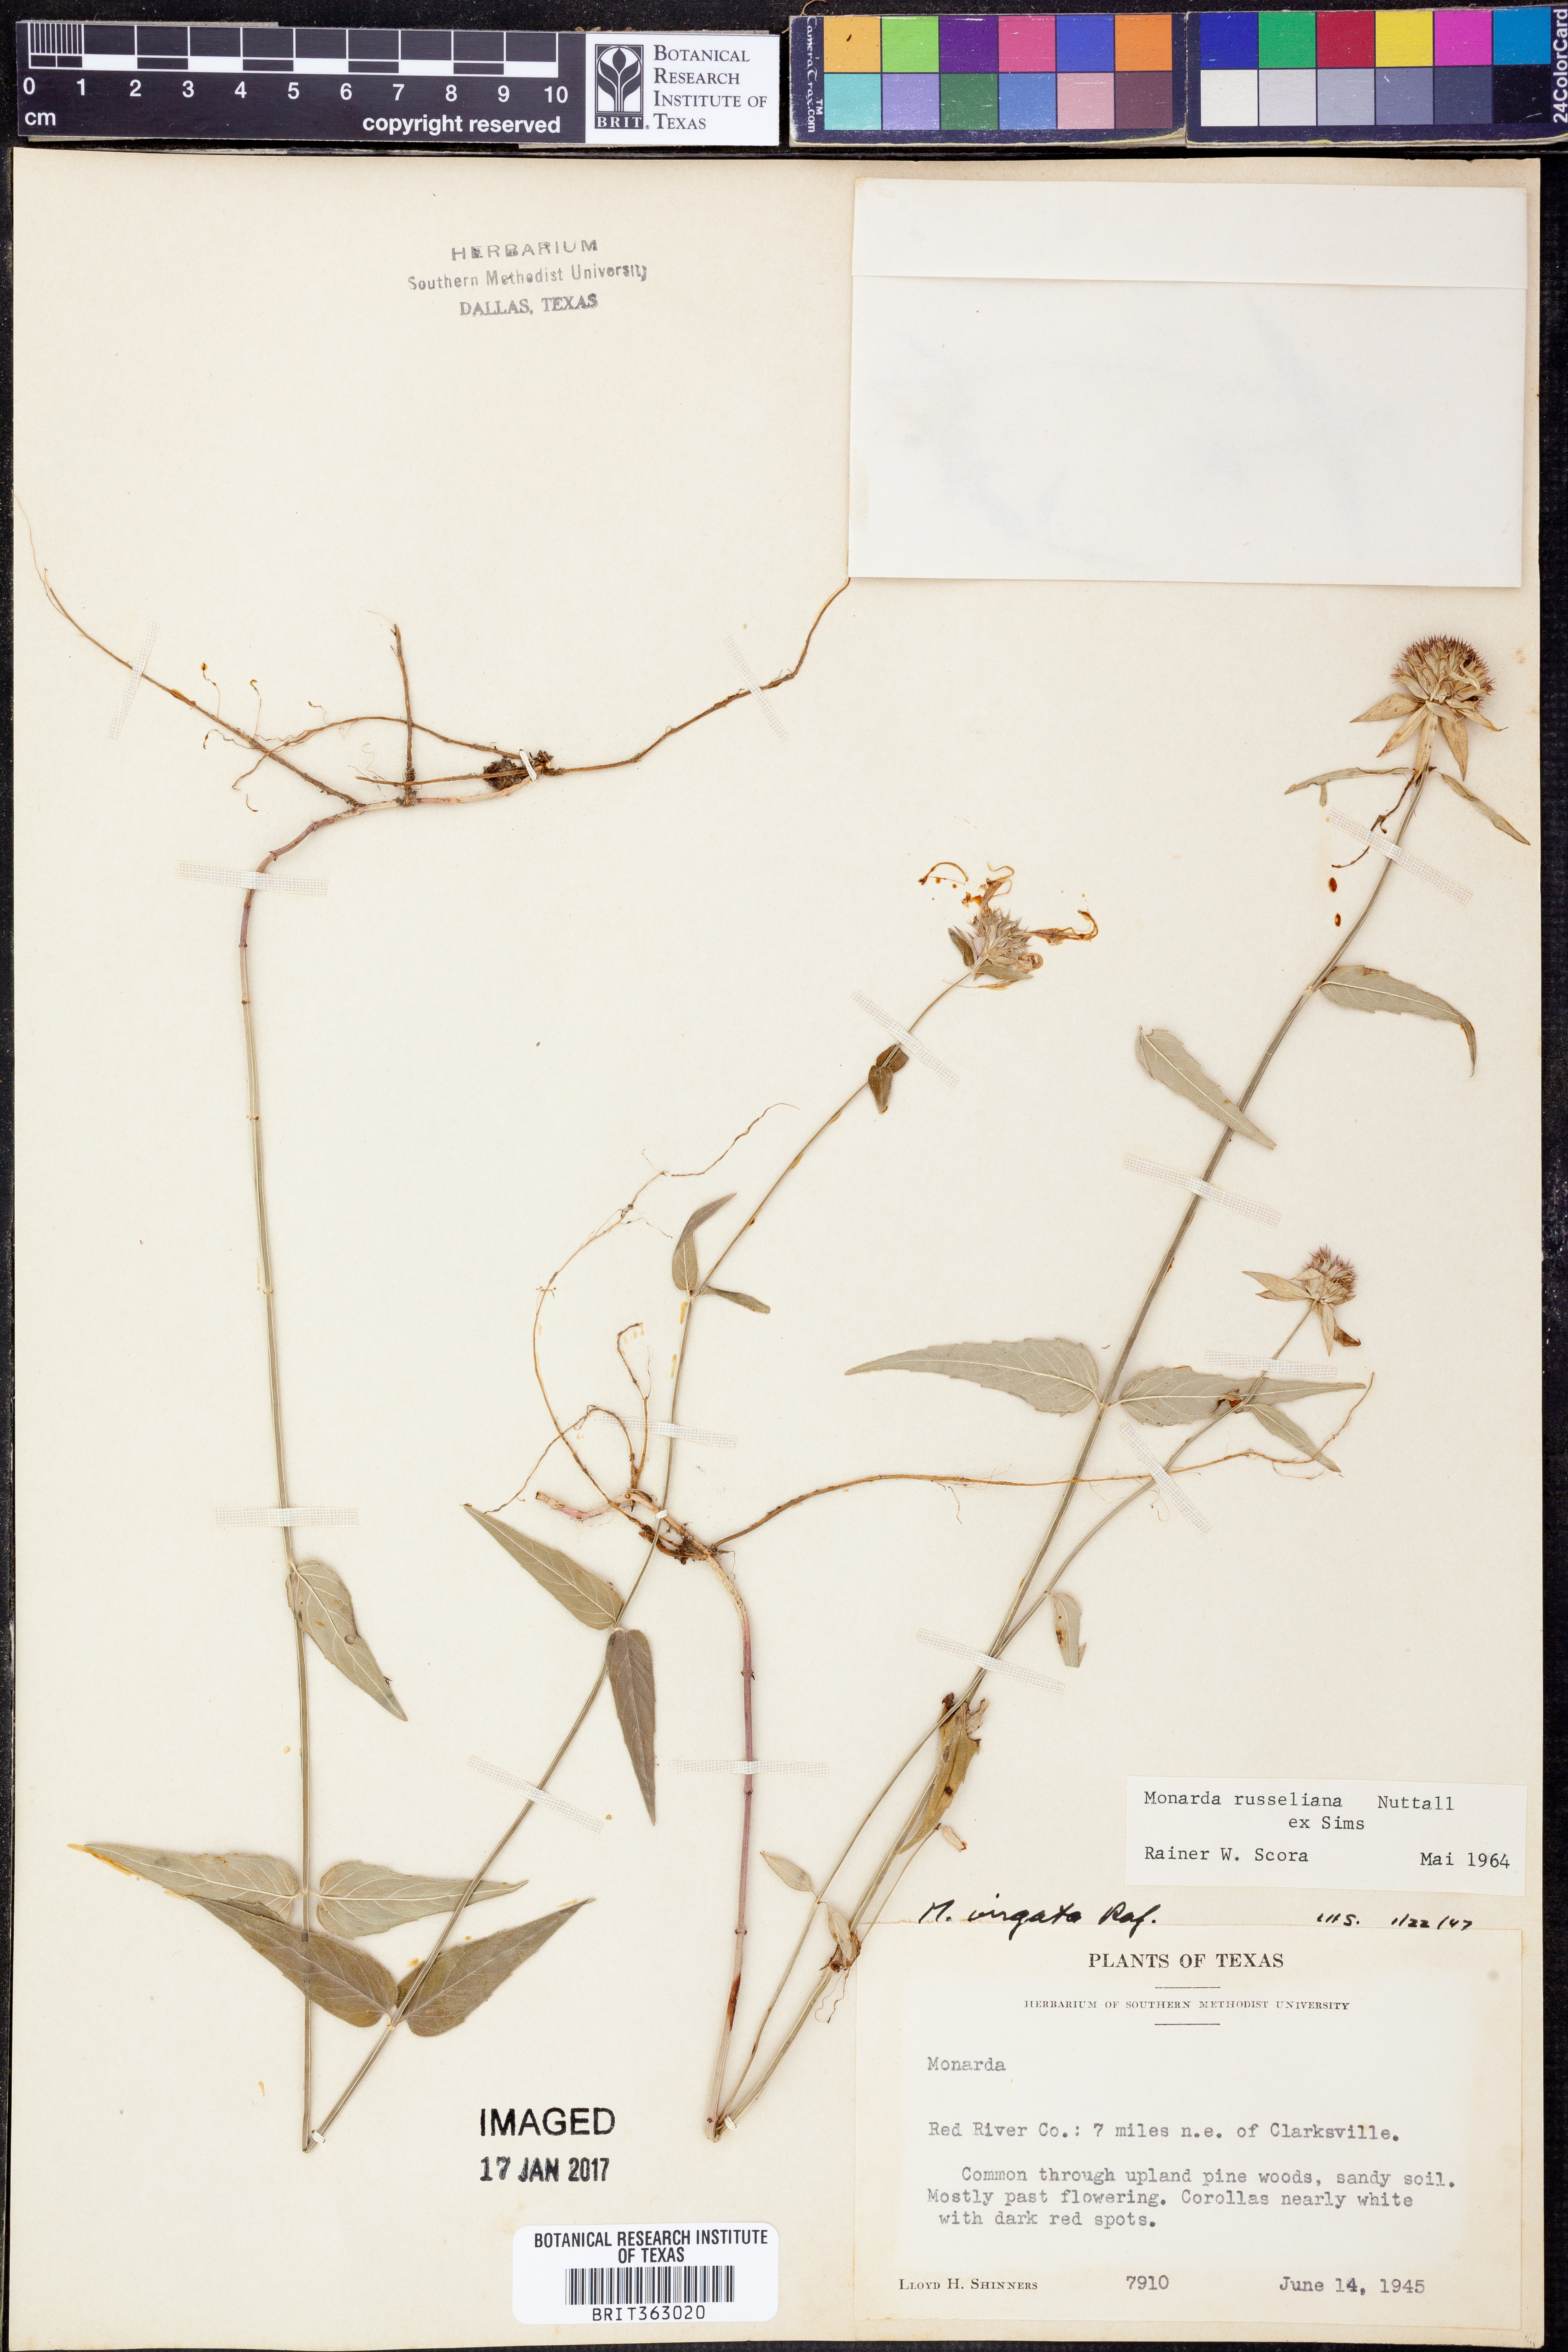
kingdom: Plantae
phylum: Tracheophyta
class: Magnoliopsida
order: Lamiales
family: Lamiaceae
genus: Monarda
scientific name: Monarda russeliana
